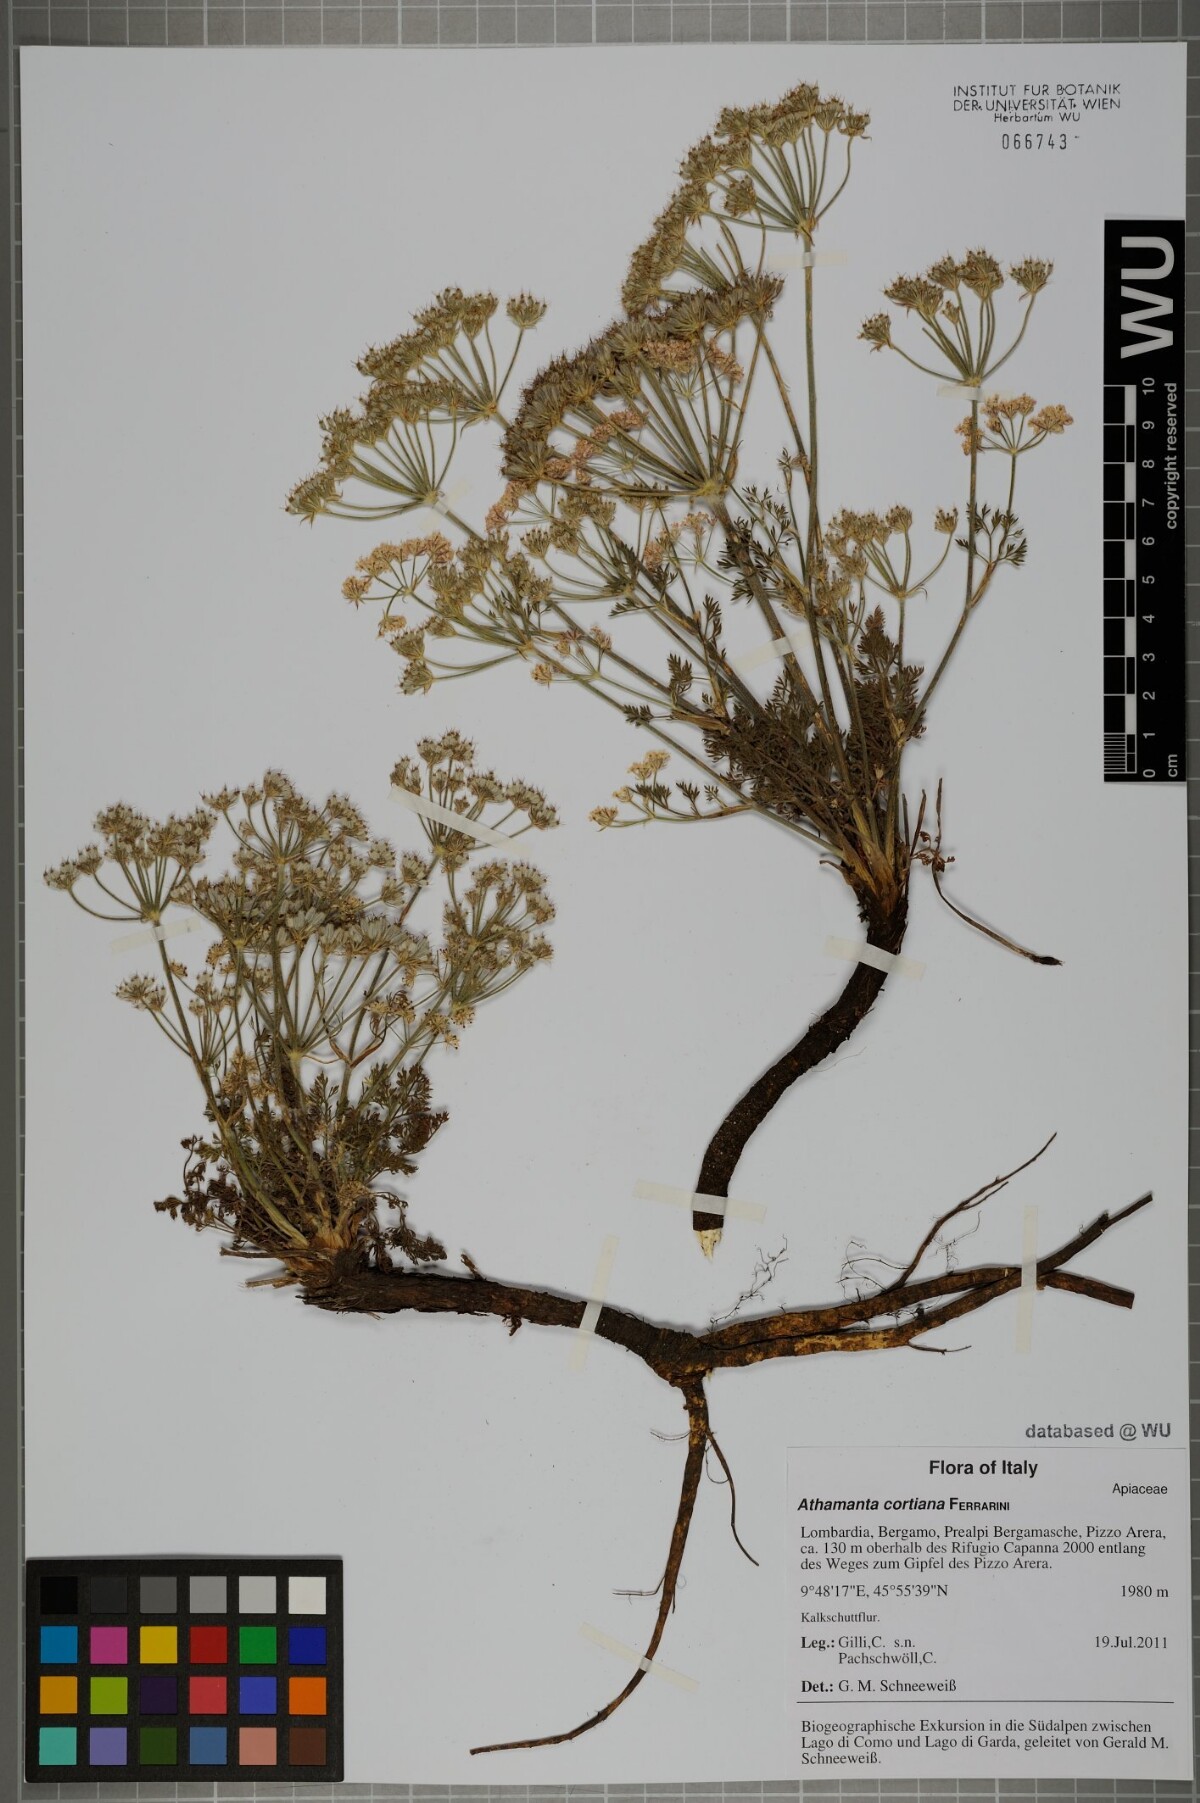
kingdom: Plantae
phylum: Tracheophyta
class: Magnoliopsida
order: Apiales
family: Apiaceae
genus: Athamanta
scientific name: Athamanta cortiana
